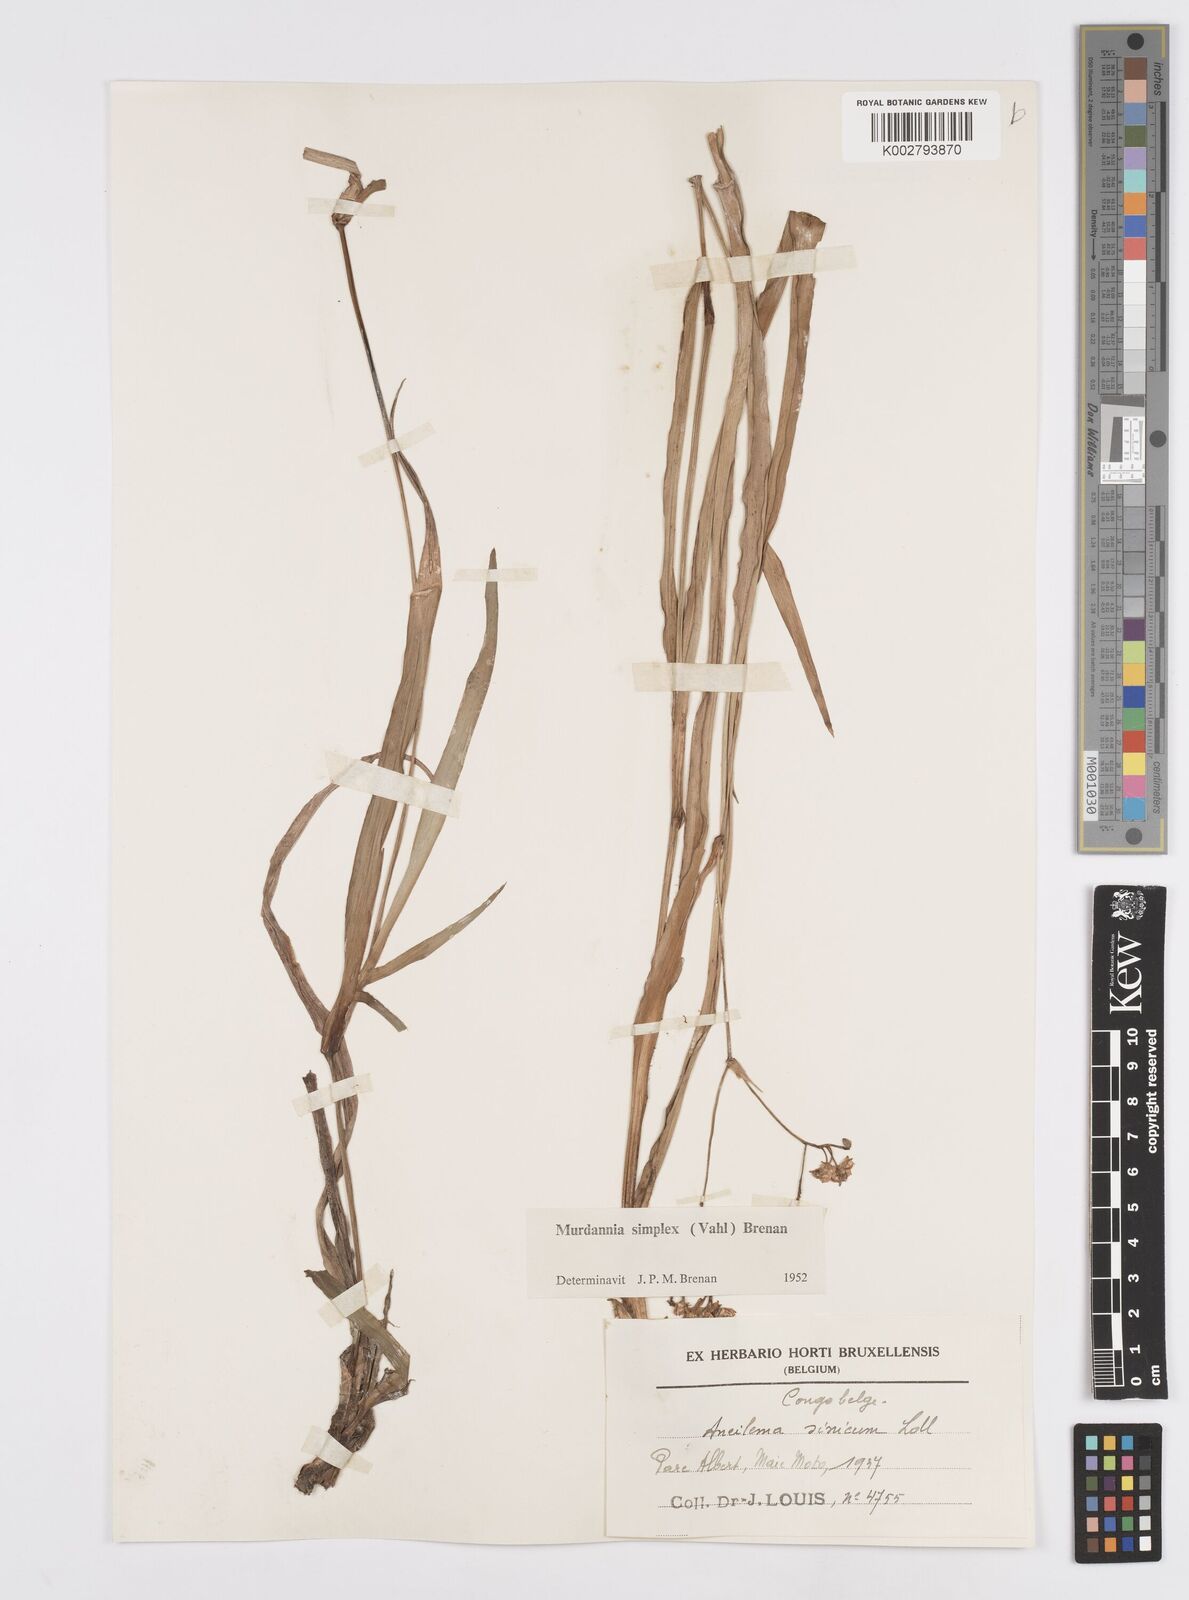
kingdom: Plantae
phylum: Tracheophyta
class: Liliopsida
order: Commelinales
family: Commelinaceae
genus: Murdannia
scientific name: Murdannia simplex
